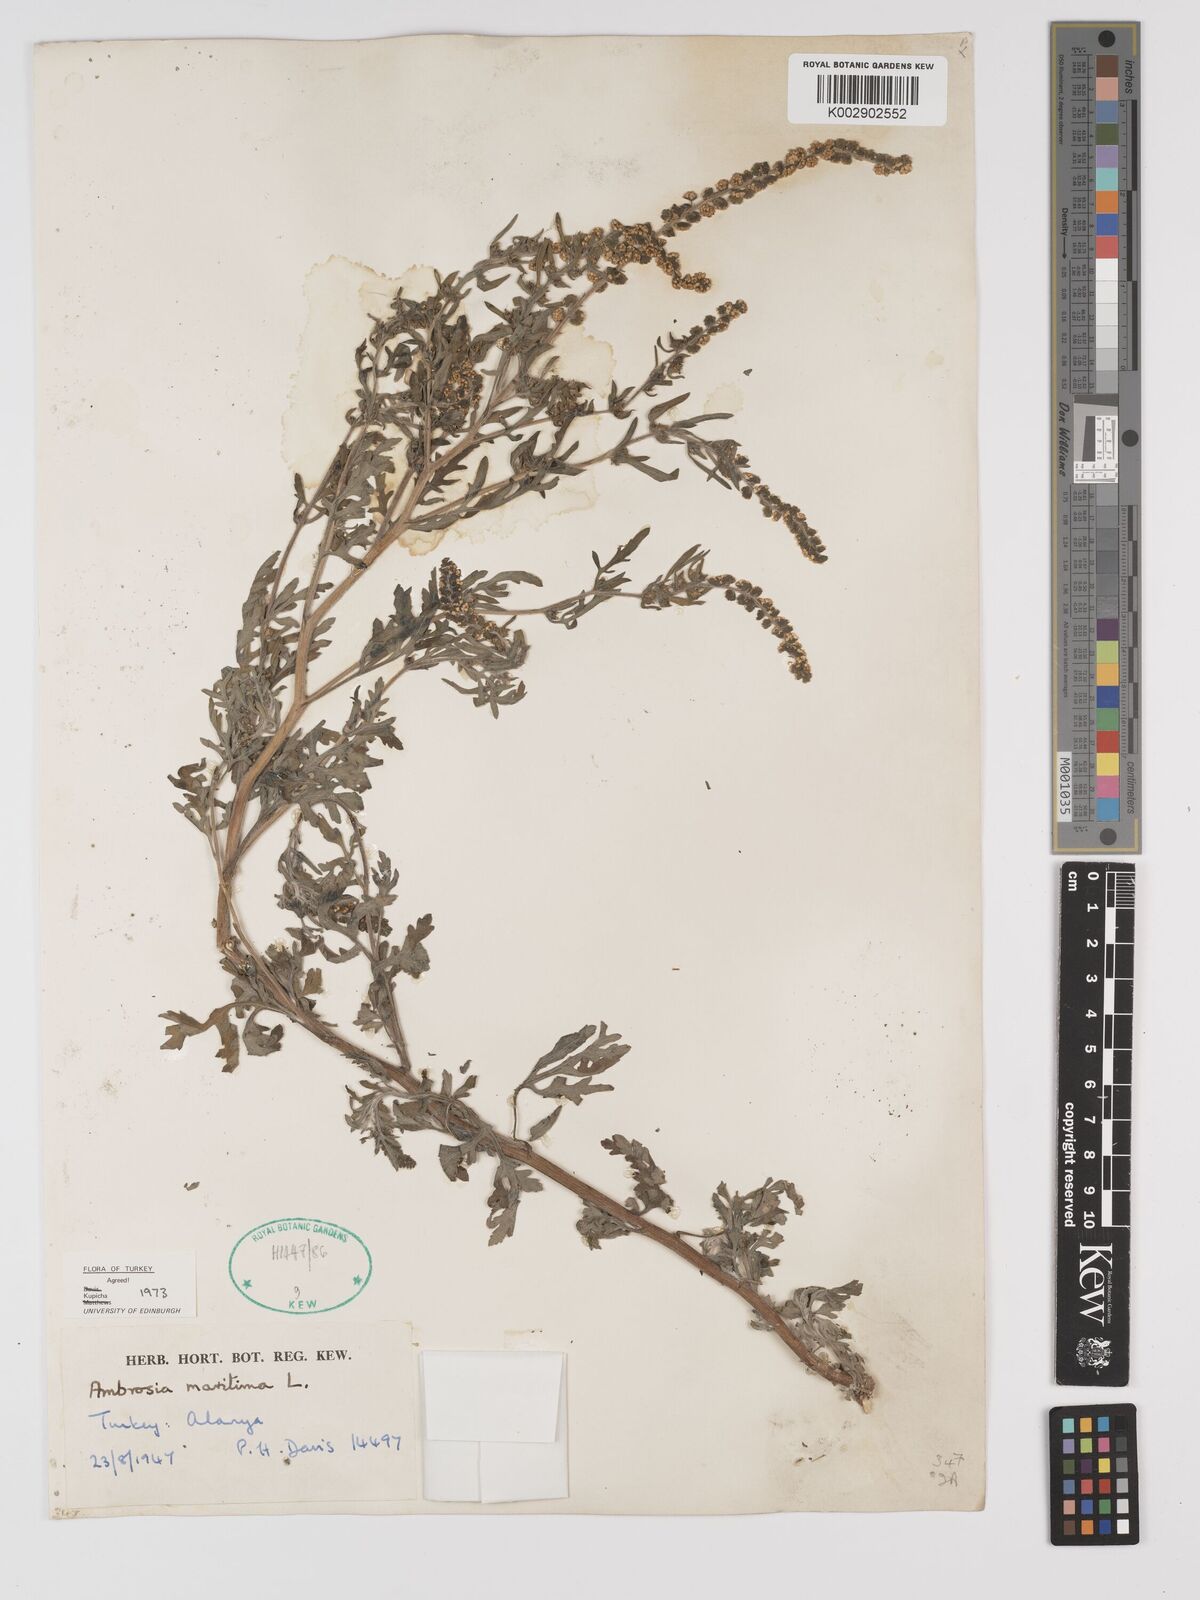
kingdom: Plantae
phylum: Tracheophyta
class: Magnoliopsida
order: Asterales
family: Asteraceae
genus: Ambrosia
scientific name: Ambrosia maritima
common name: Sea ambrosia
